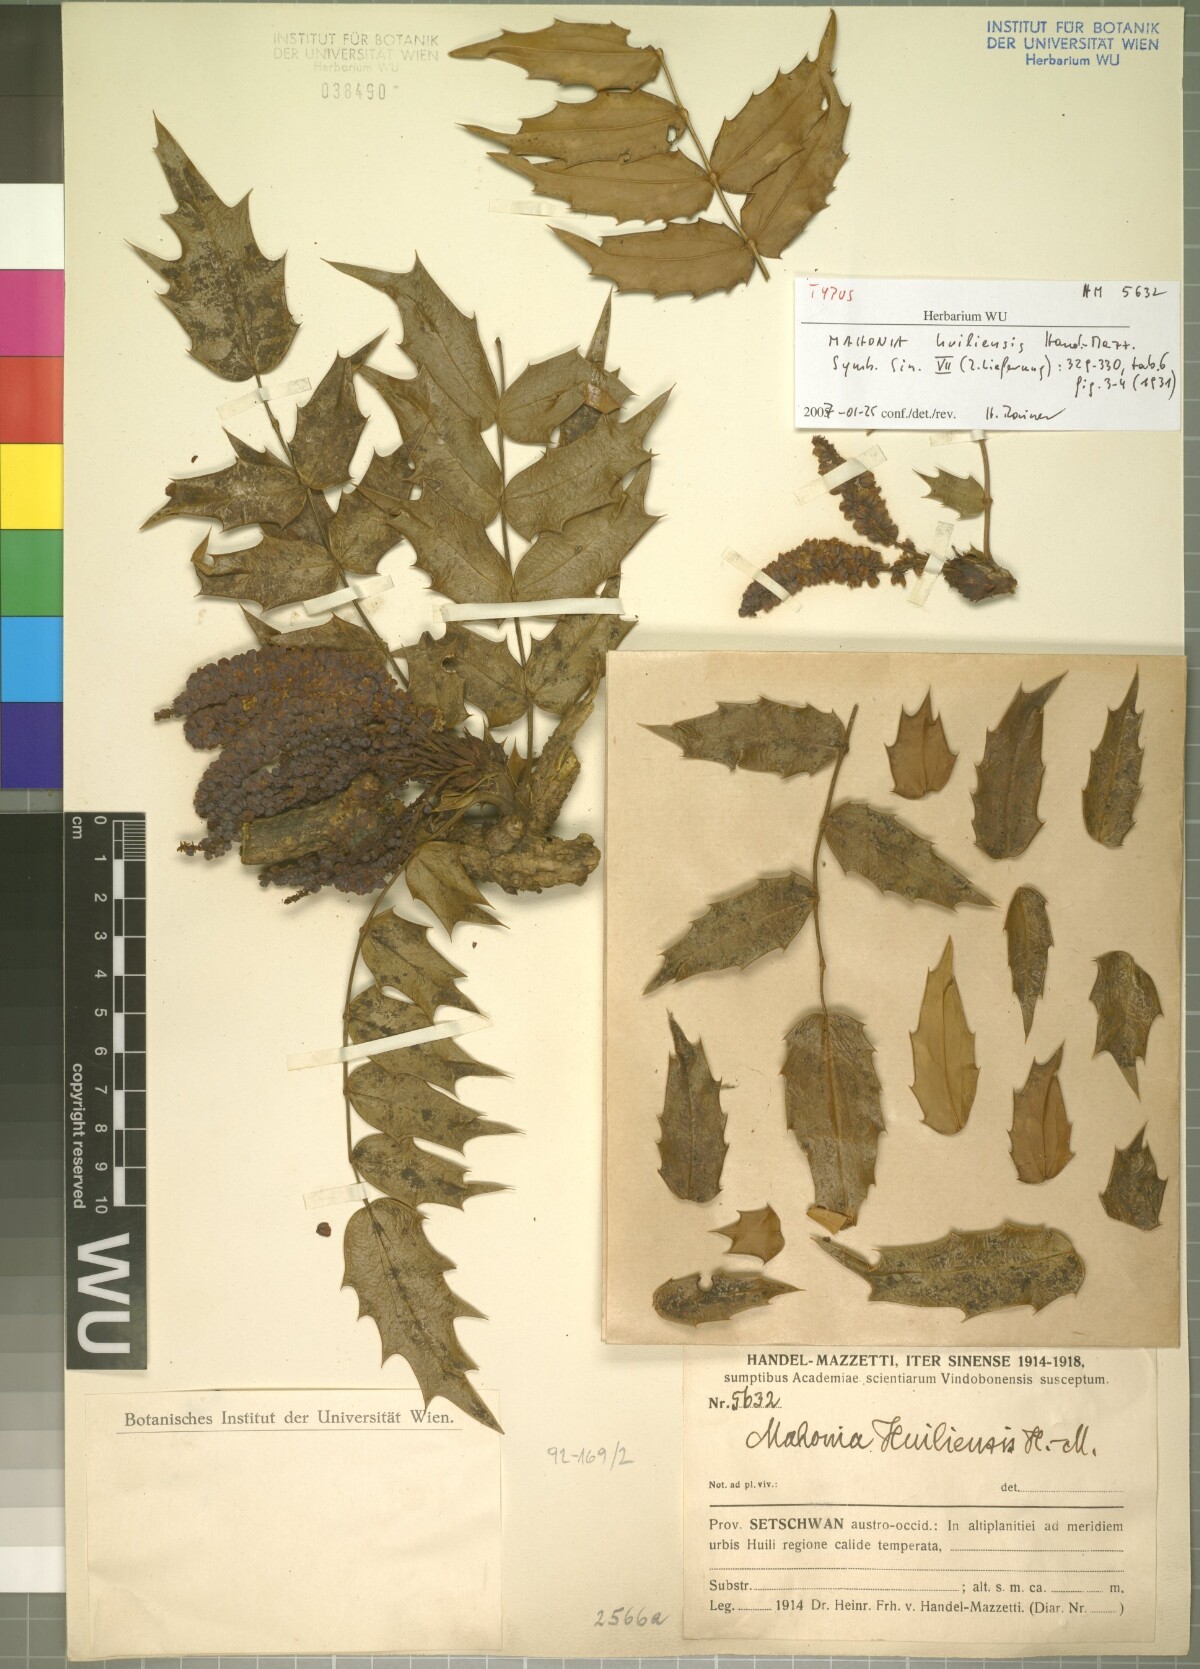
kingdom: Plantae
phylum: Tracheophyta
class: Magnoliopsida
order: Ranunculales
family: Berberidaceae
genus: Mahonia
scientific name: Mahonia sheridaniana
